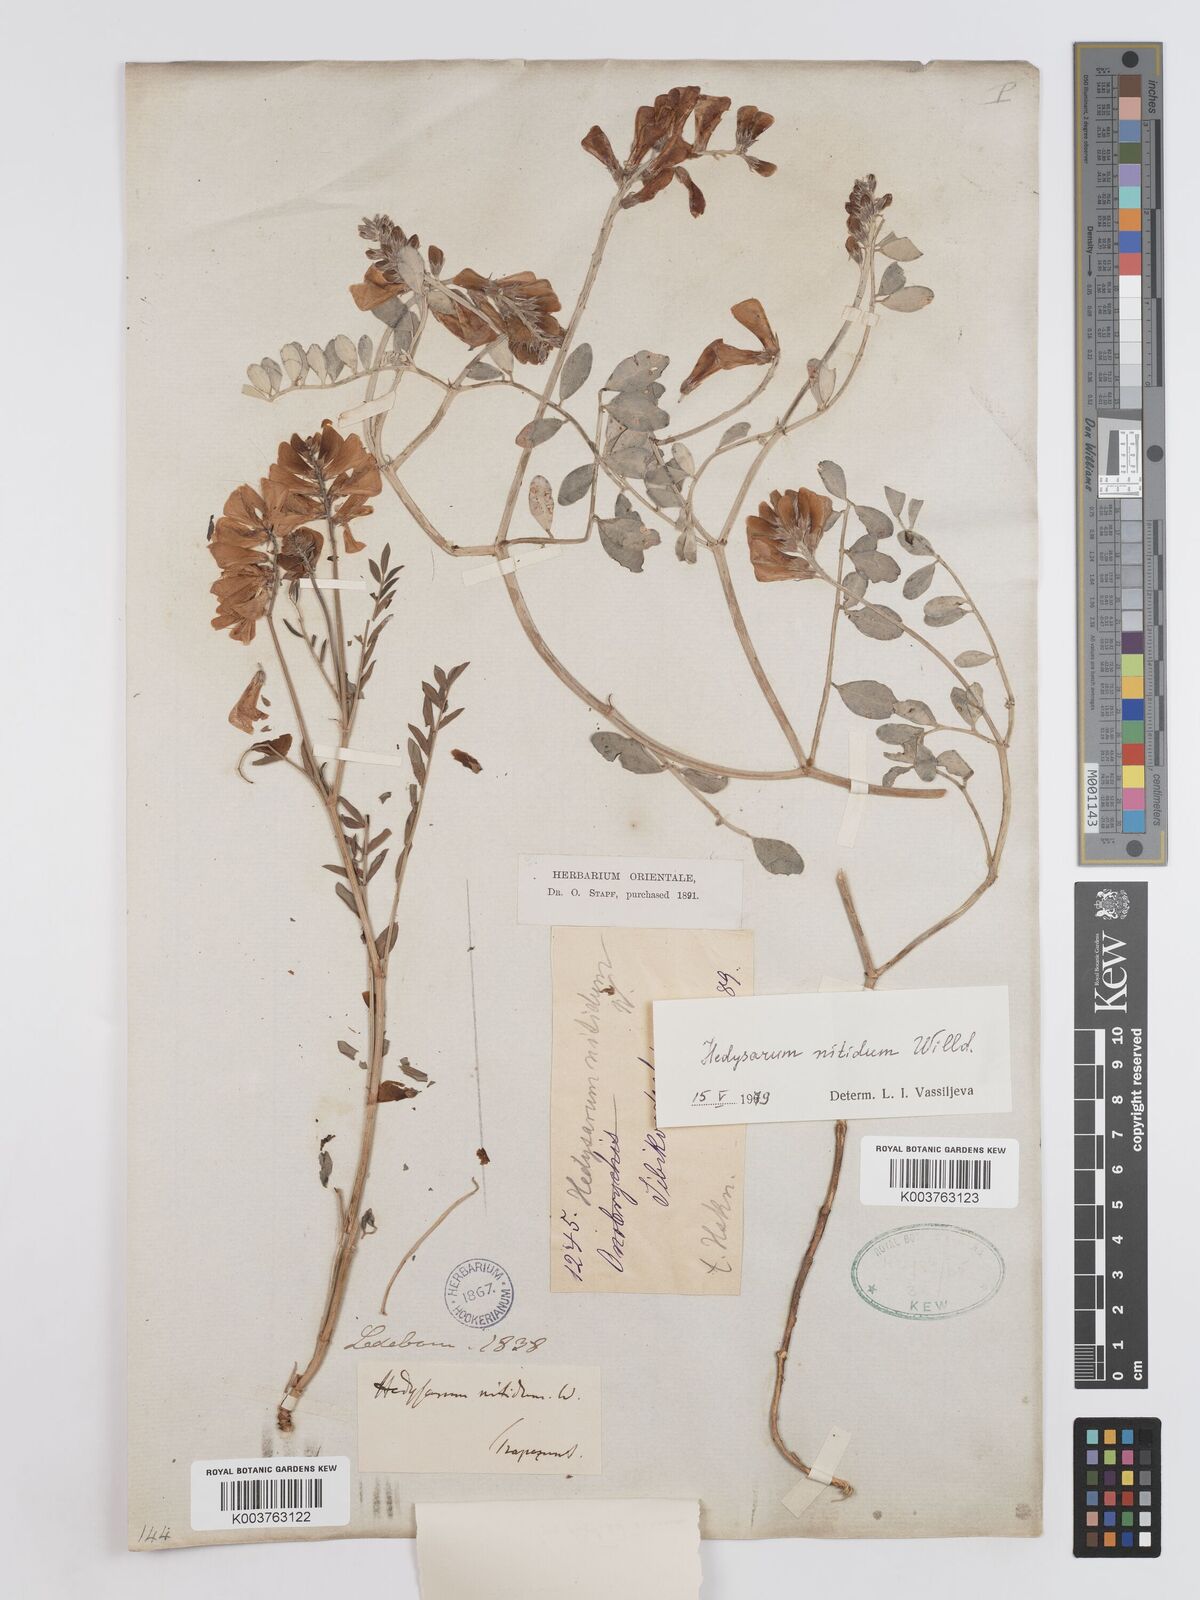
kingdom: Plantae
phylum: Tracheophyta
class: Magnoliopsida
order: Fabales
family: Fabaceae
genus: Hedysarum
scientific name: Hedysarum nitidum
